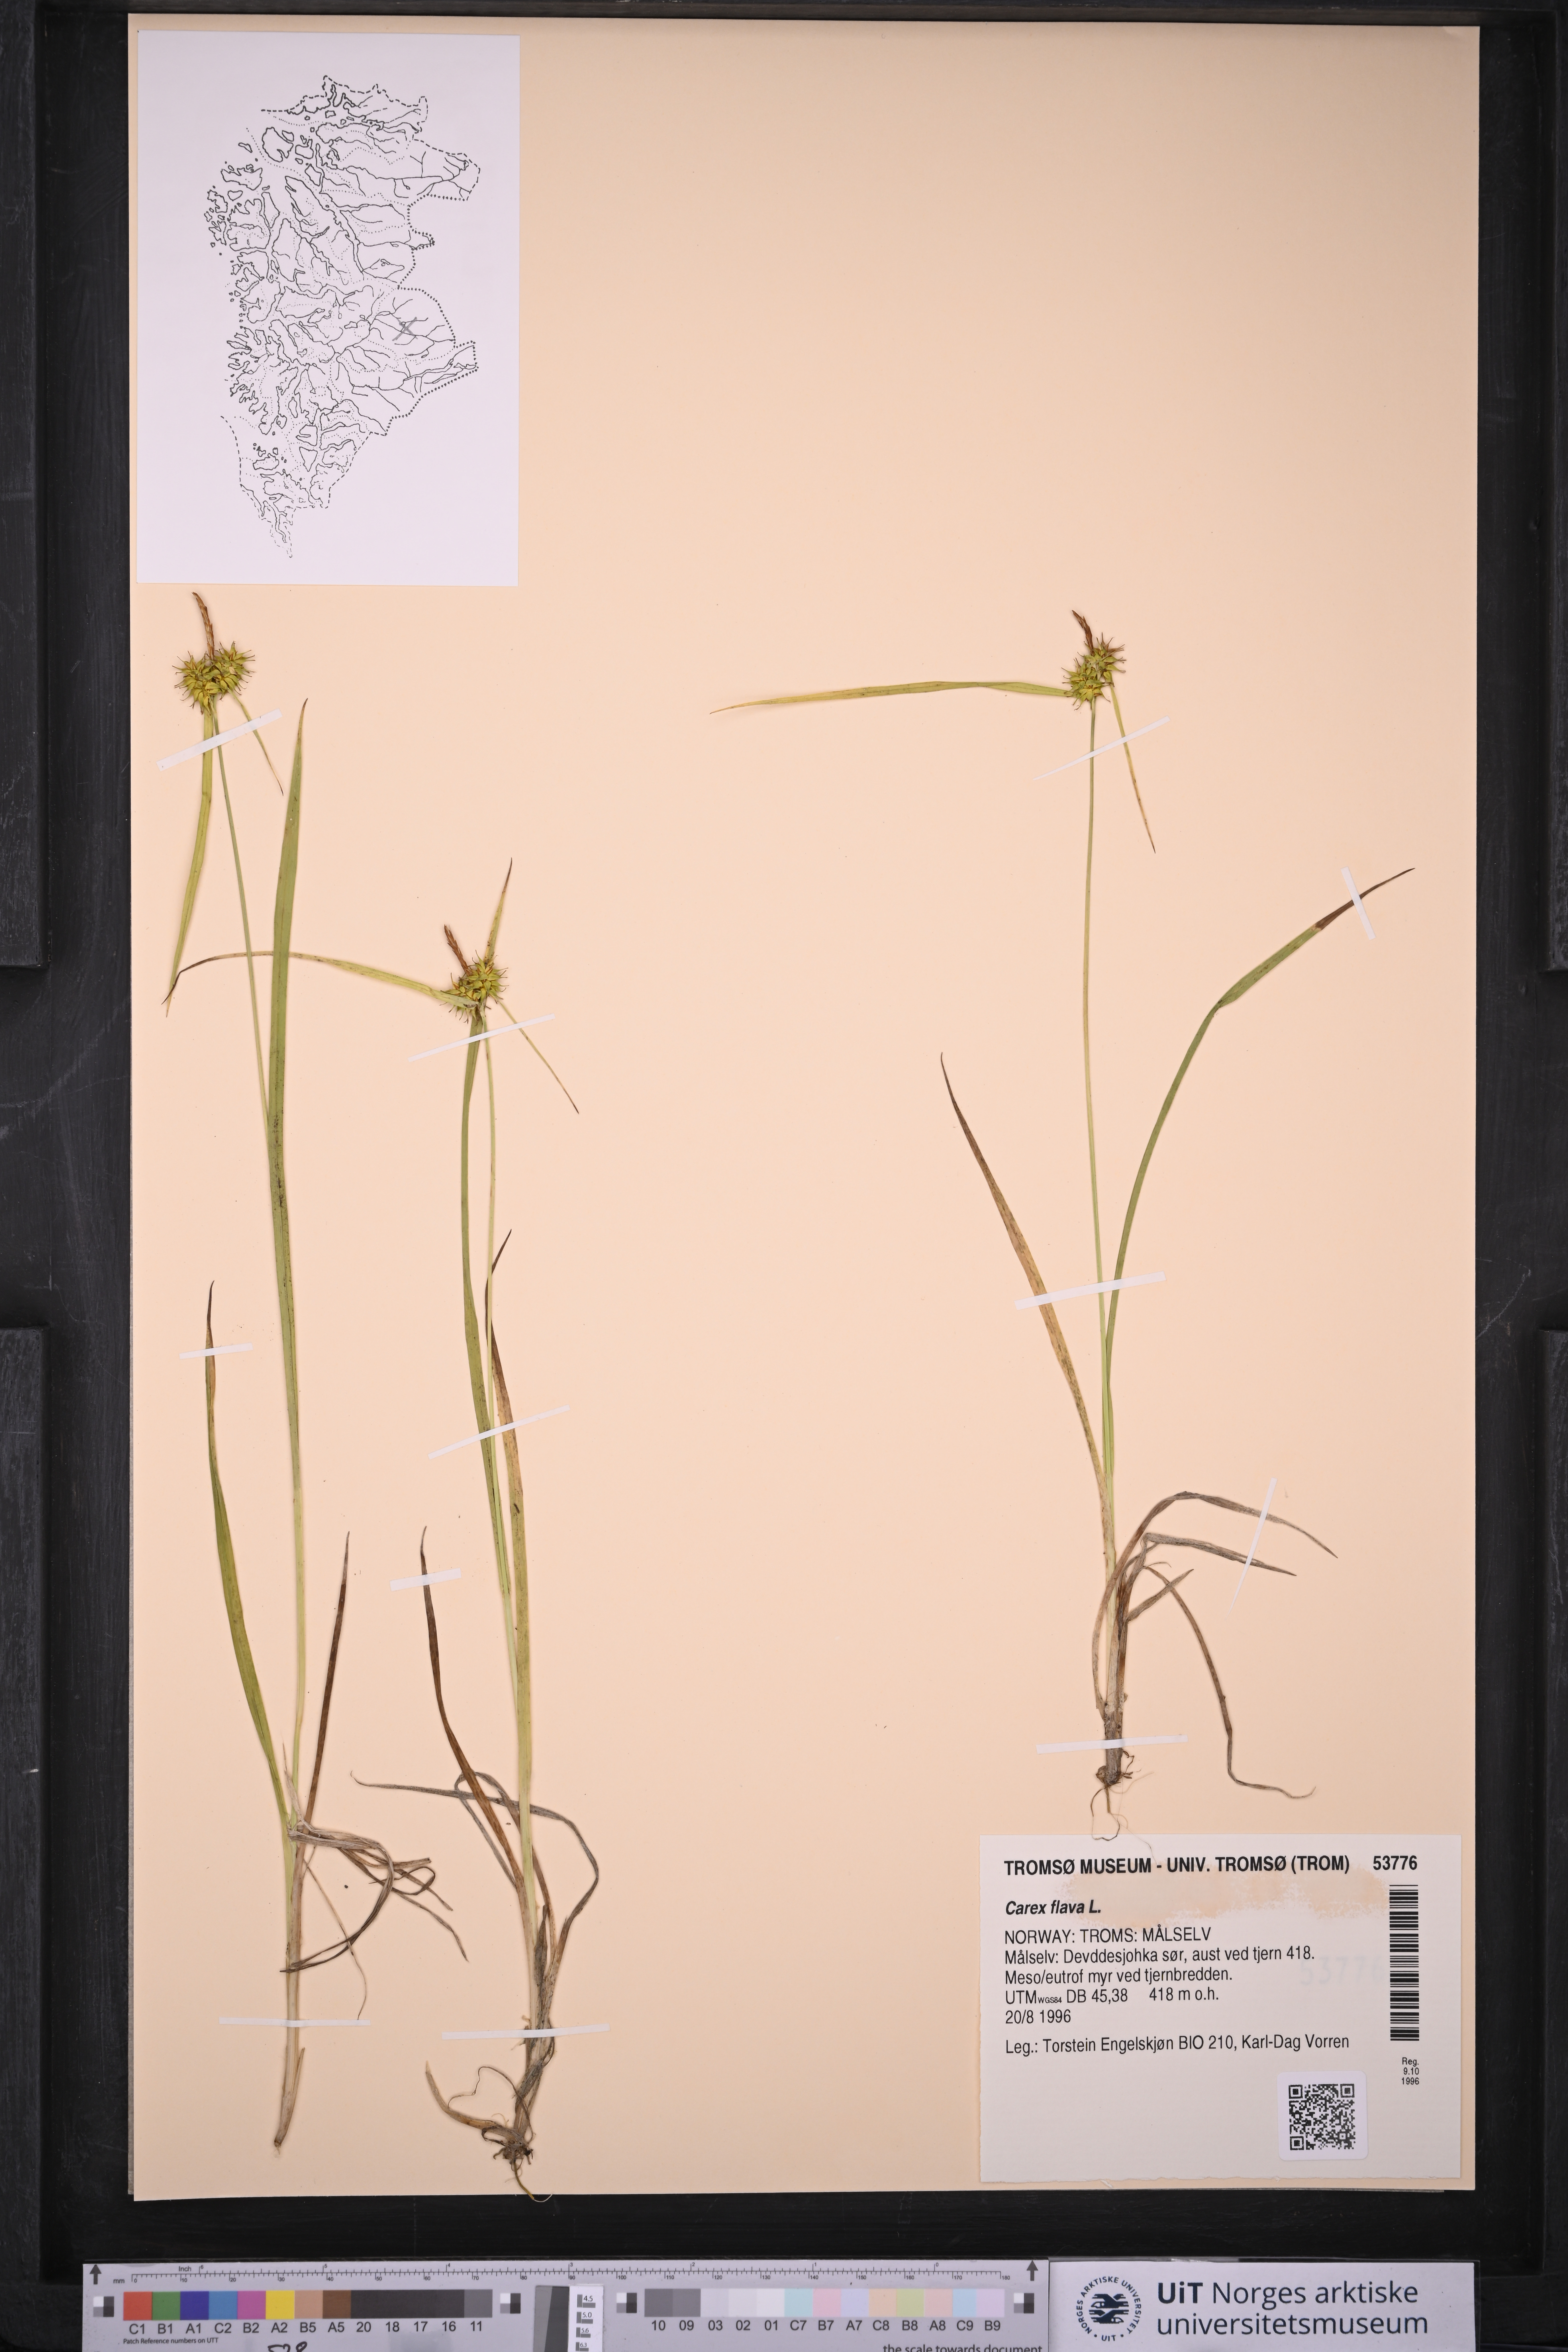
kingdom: Plantae
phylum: Tracheophyta
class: Liliopsida
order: Poales
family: Cyperaceae
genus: Carex
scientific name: Carex flava
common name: Large yellow-sedge
